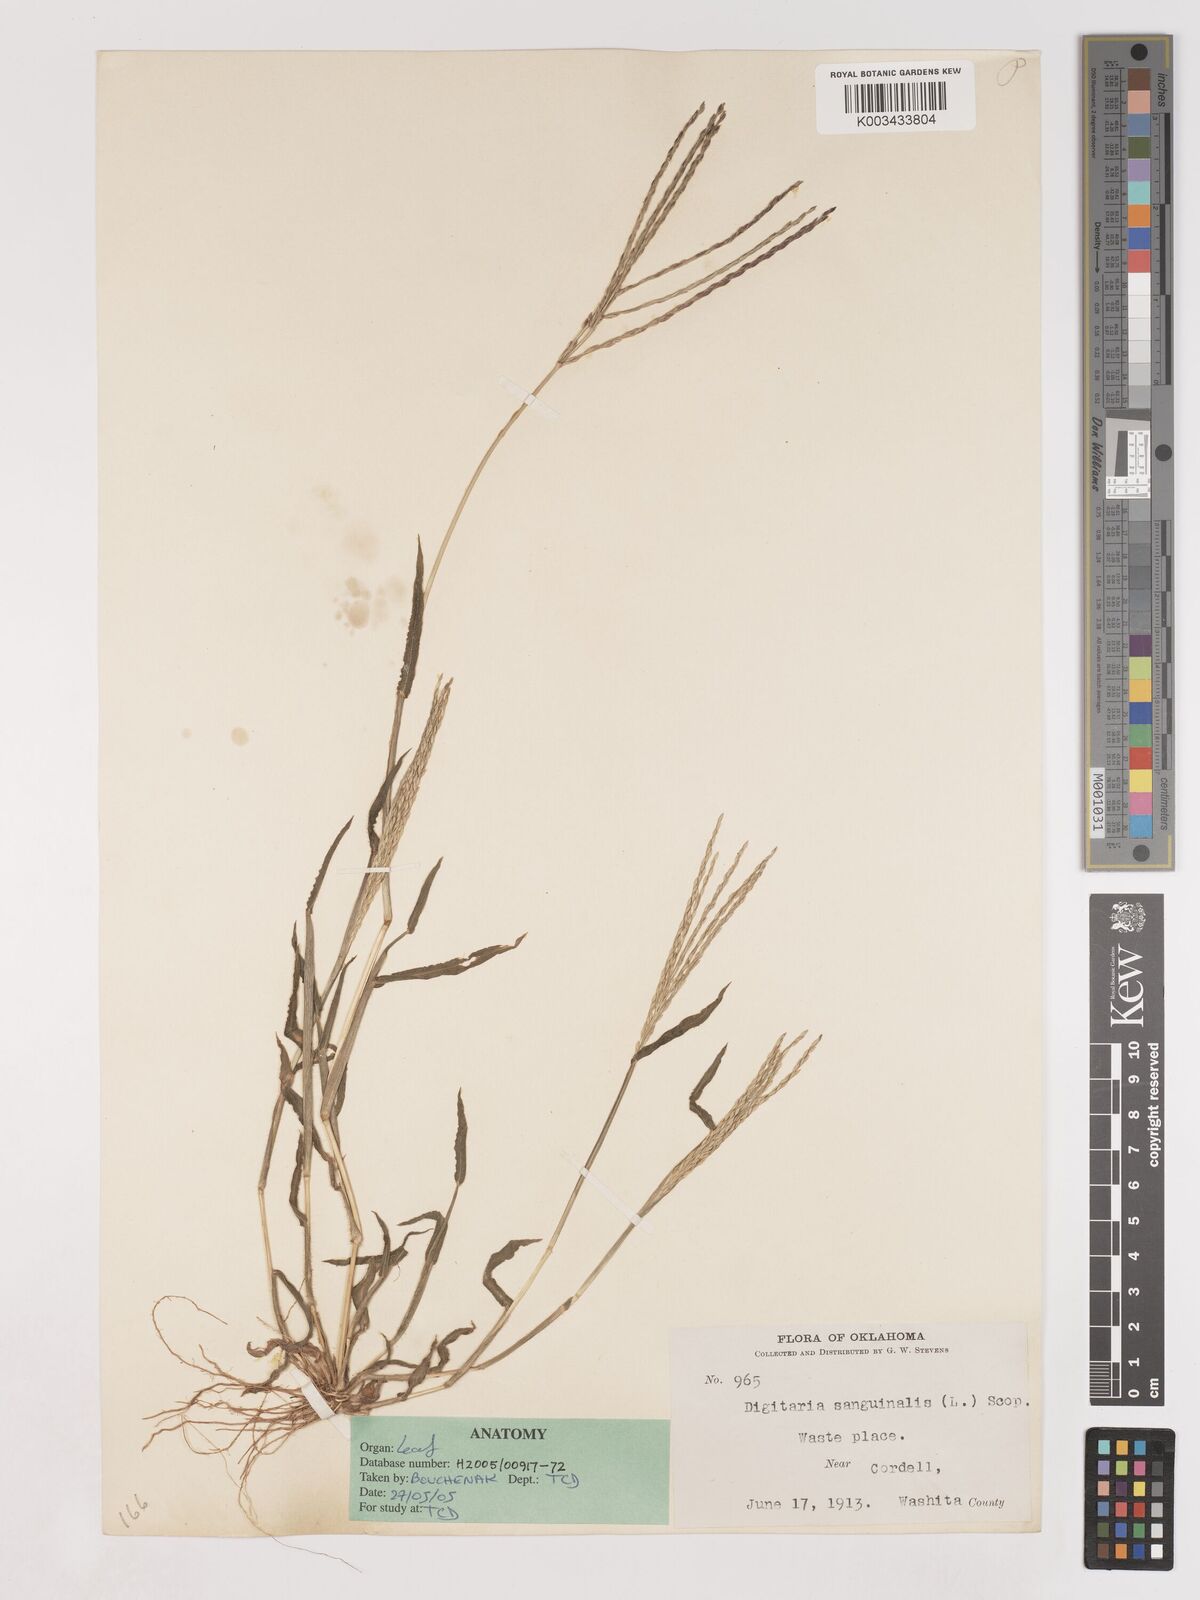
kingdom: Plantae
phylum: Tracheophyta
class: Liliopsida
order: Poales
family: Poaceae
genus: Digitaria
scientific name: Digitaria sanguinalis
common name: Hairy crabgrass
